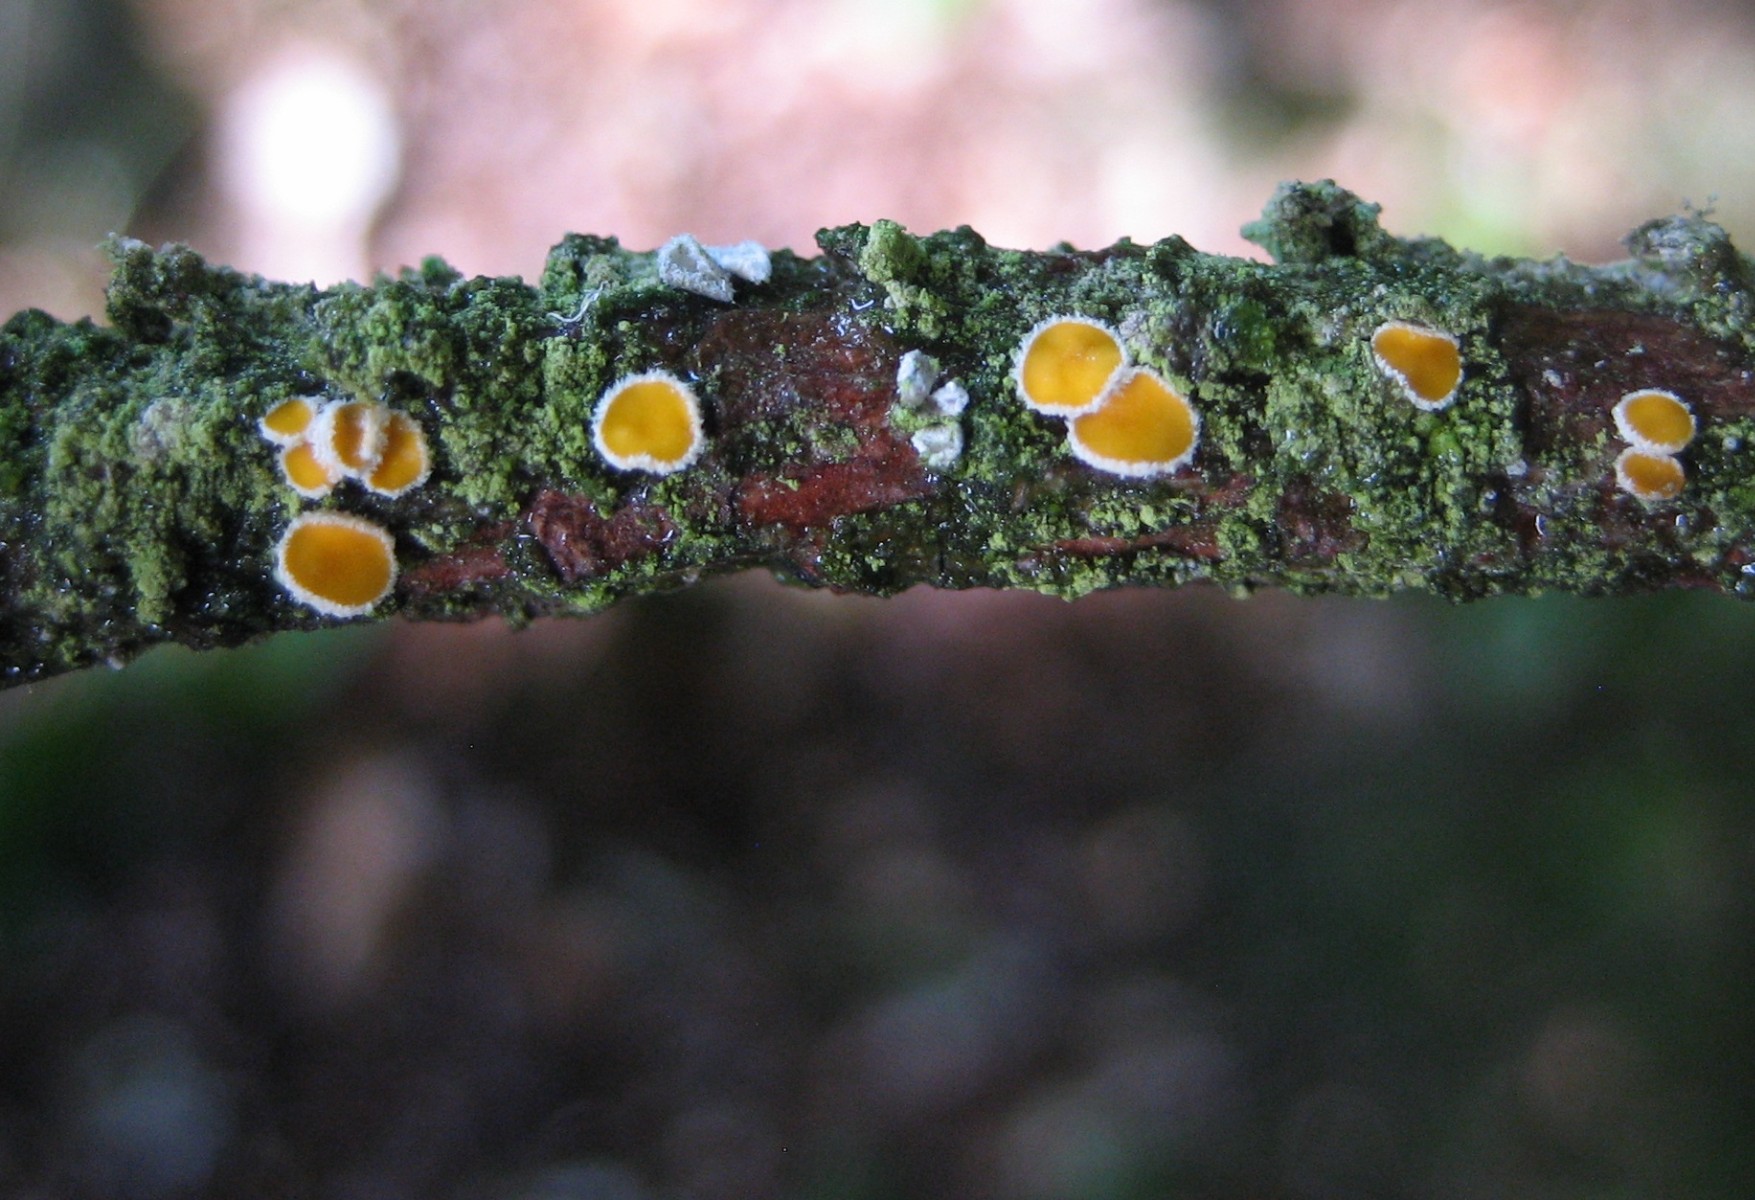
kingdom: Fungi
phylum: Ascomycota
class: Leotiomycetes
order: Helotiales
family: Lachnaceae
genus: Capitotricha
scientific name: Capitotricha bicolor
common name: prægtig frynseskive
